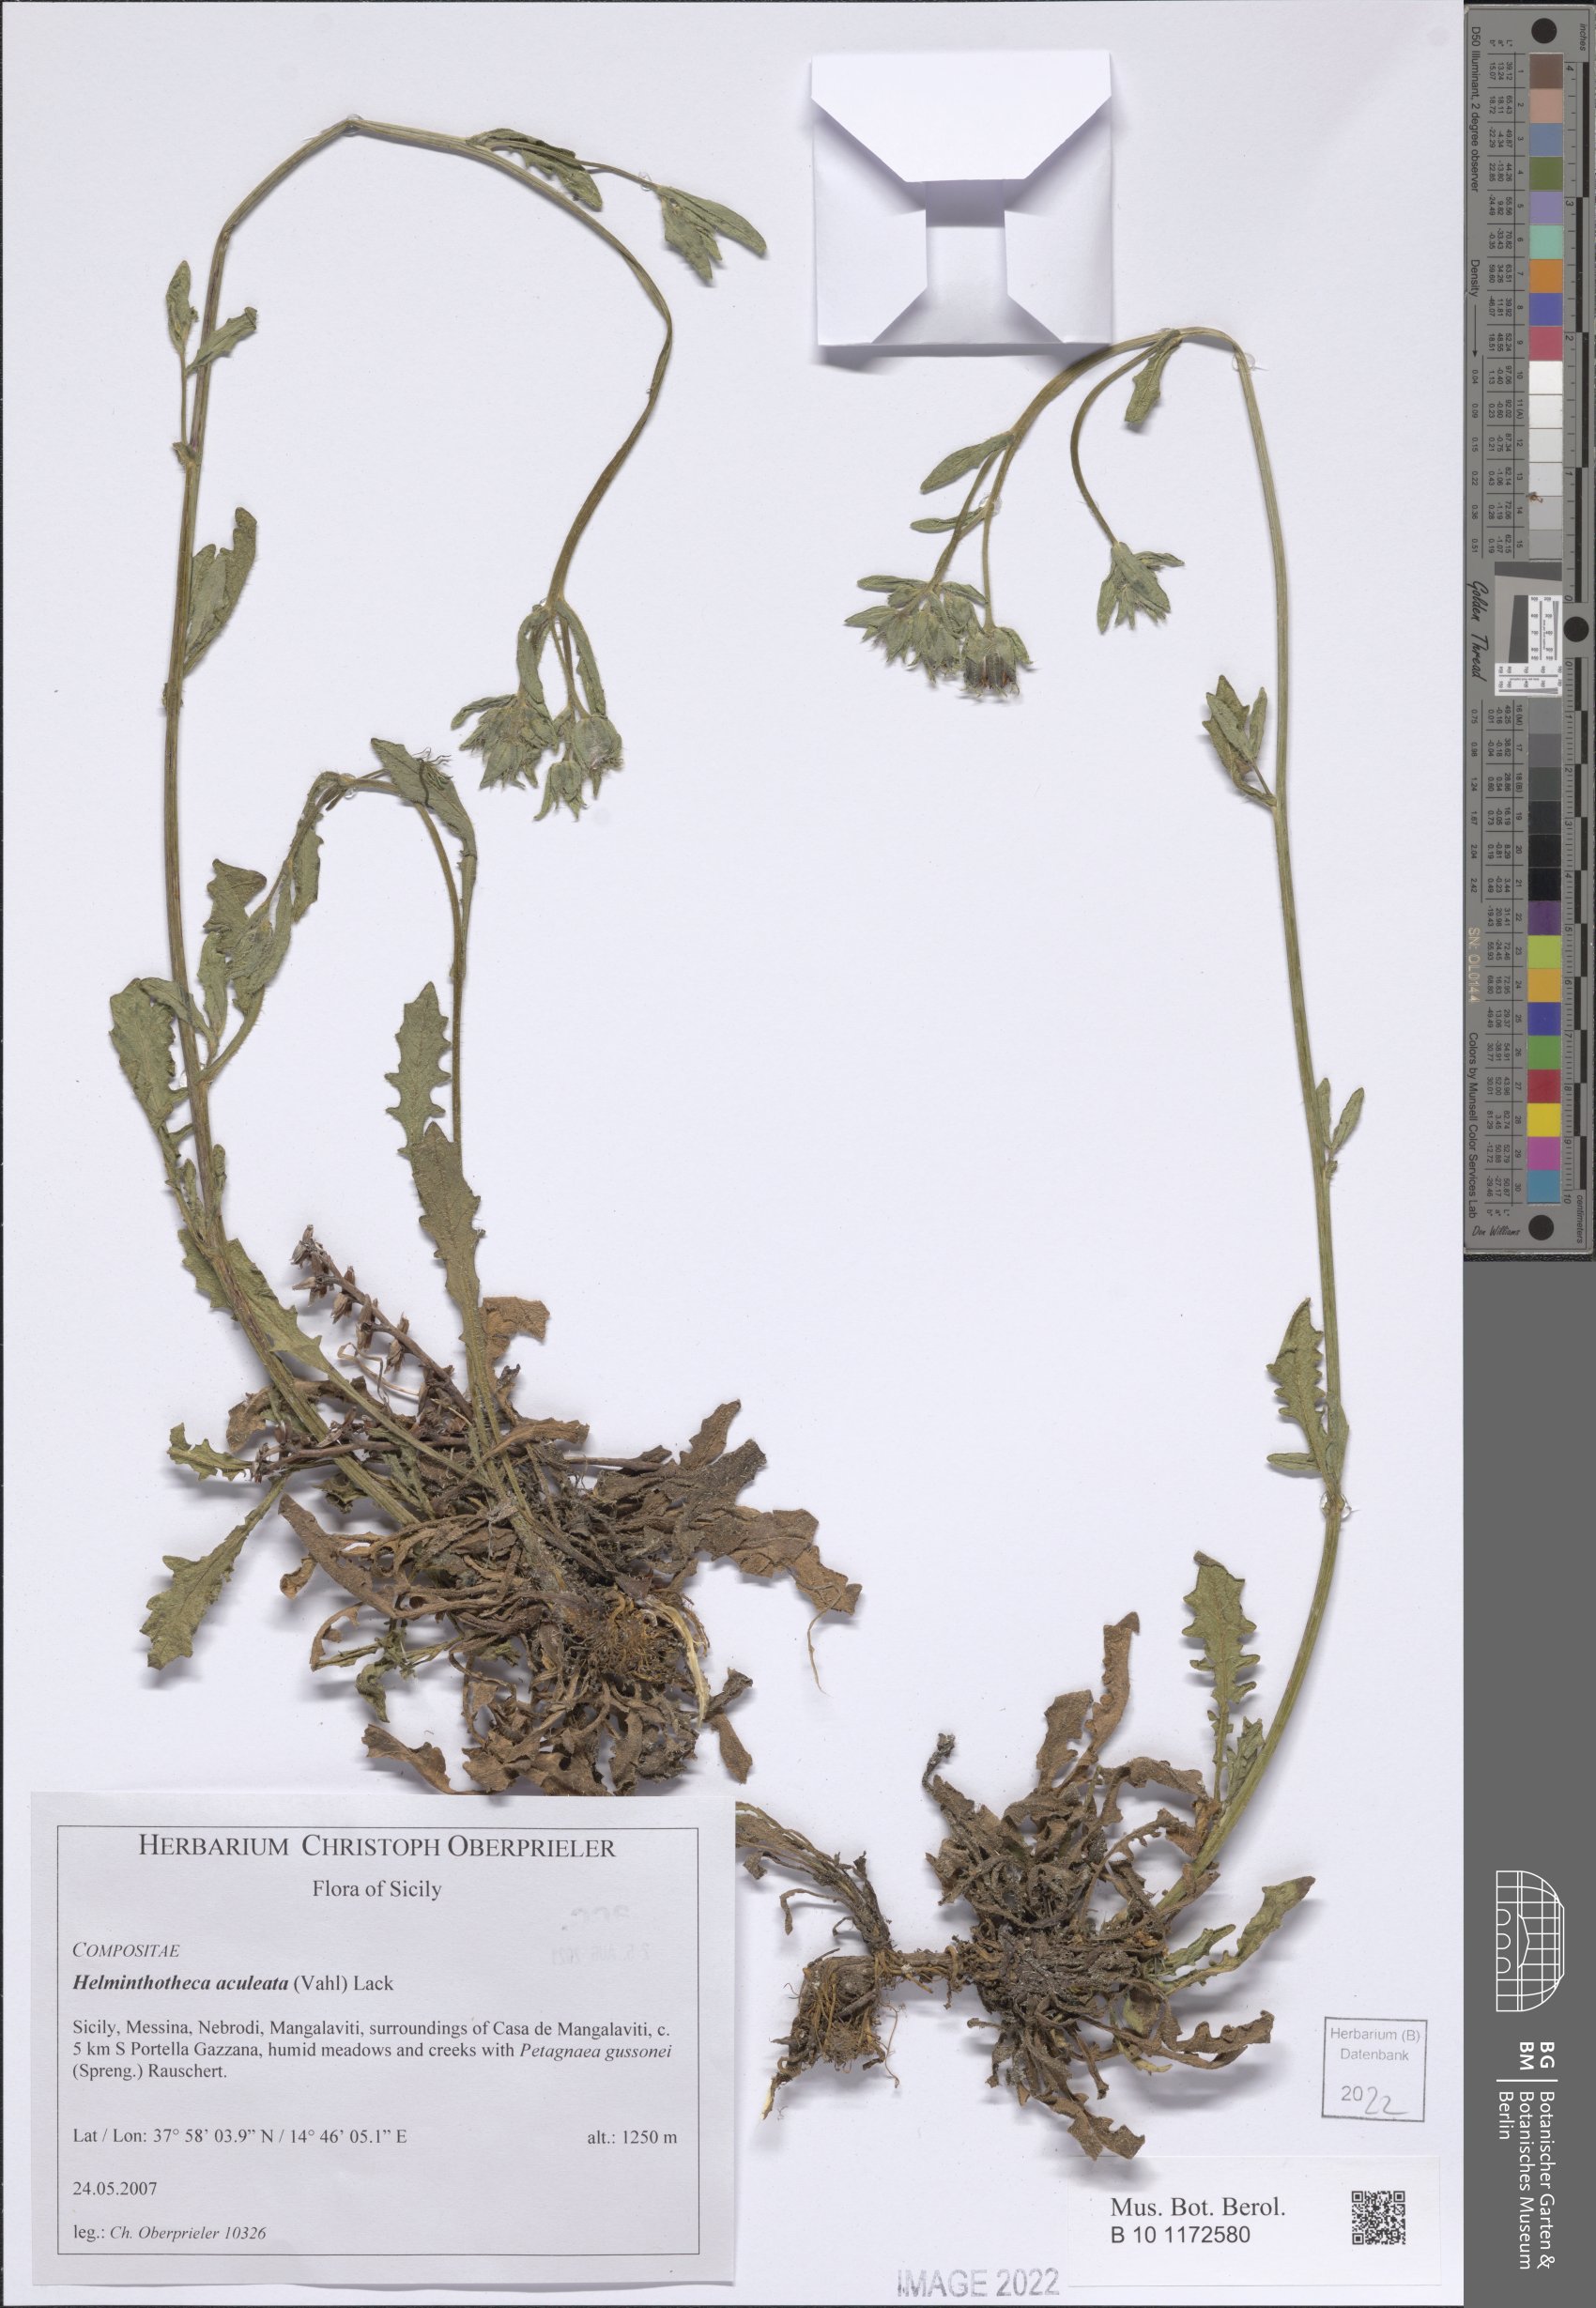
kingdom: Plantae
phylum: Tracheophyta
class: Magnoliopsida
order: Asterales
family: Asteraceae
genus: Helminthotheca
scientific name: Helminthotheca aculeata
